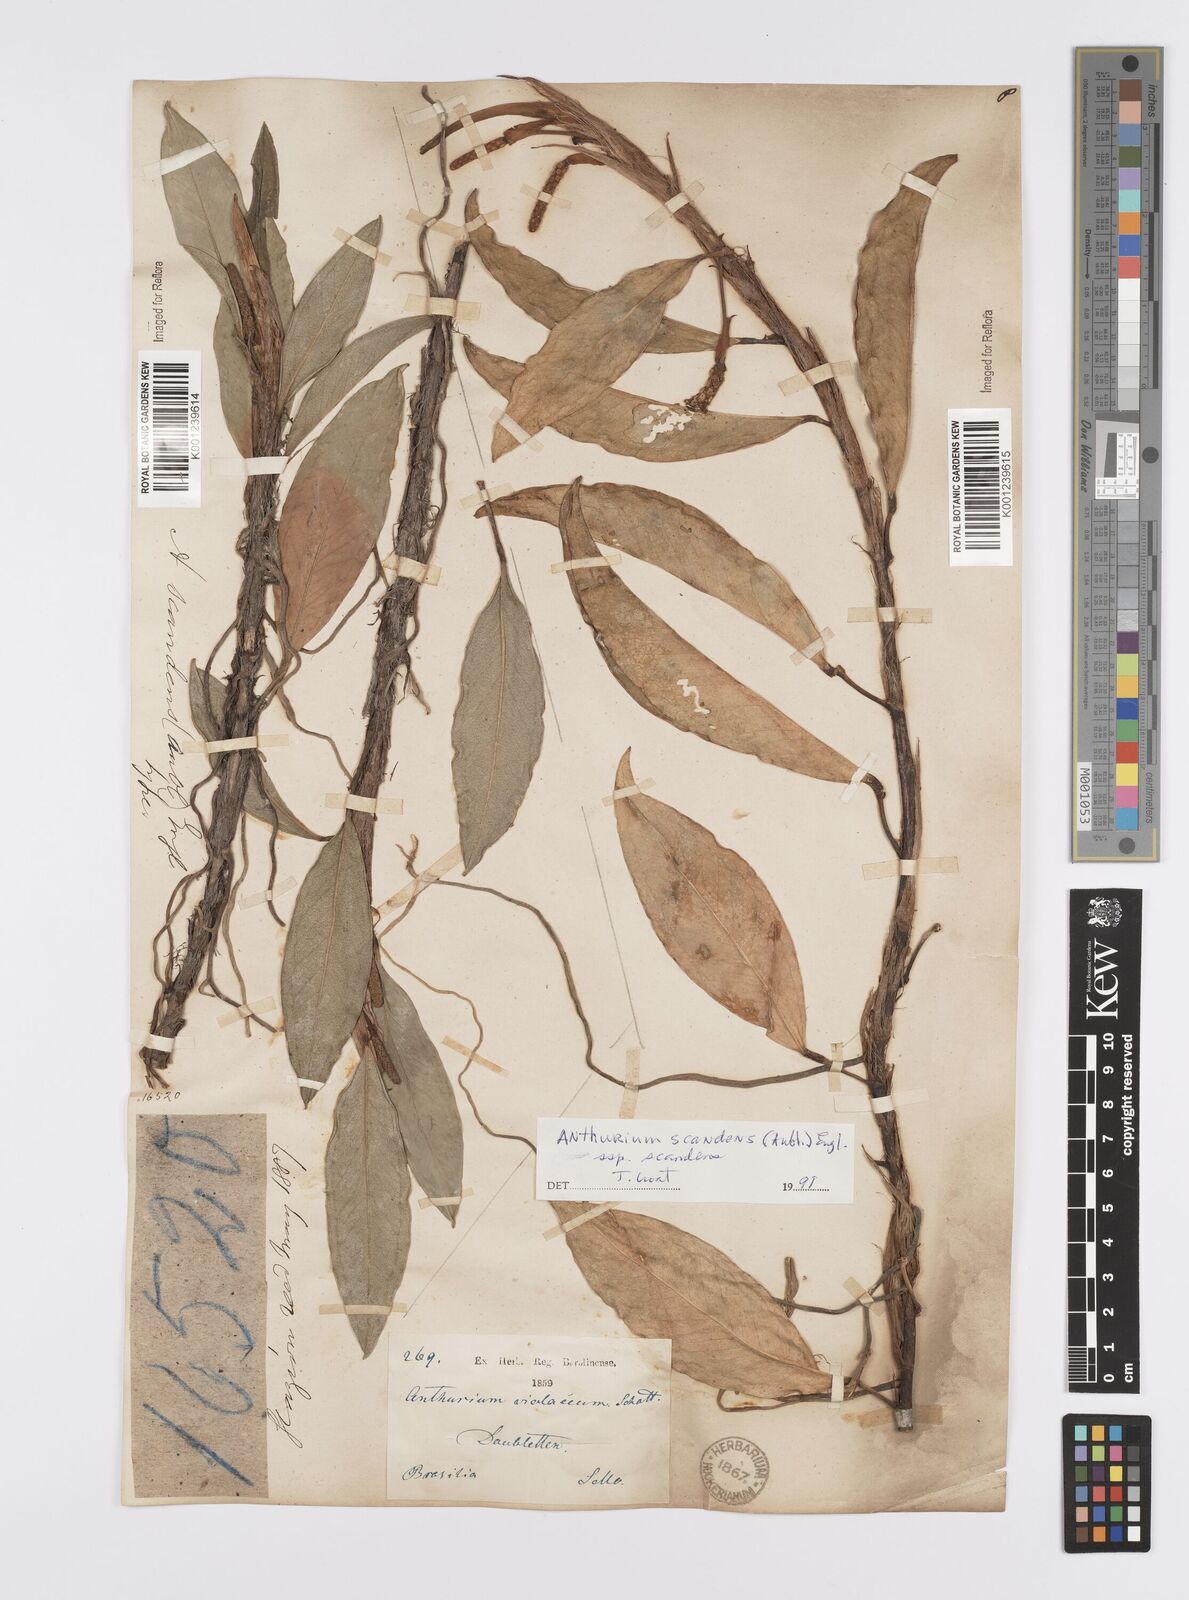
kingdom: Plantae
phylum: Tracheophyta
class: Liliopsida
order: Alismatales
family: Araceae
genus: Anthurium
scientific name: Anthurium scandens
